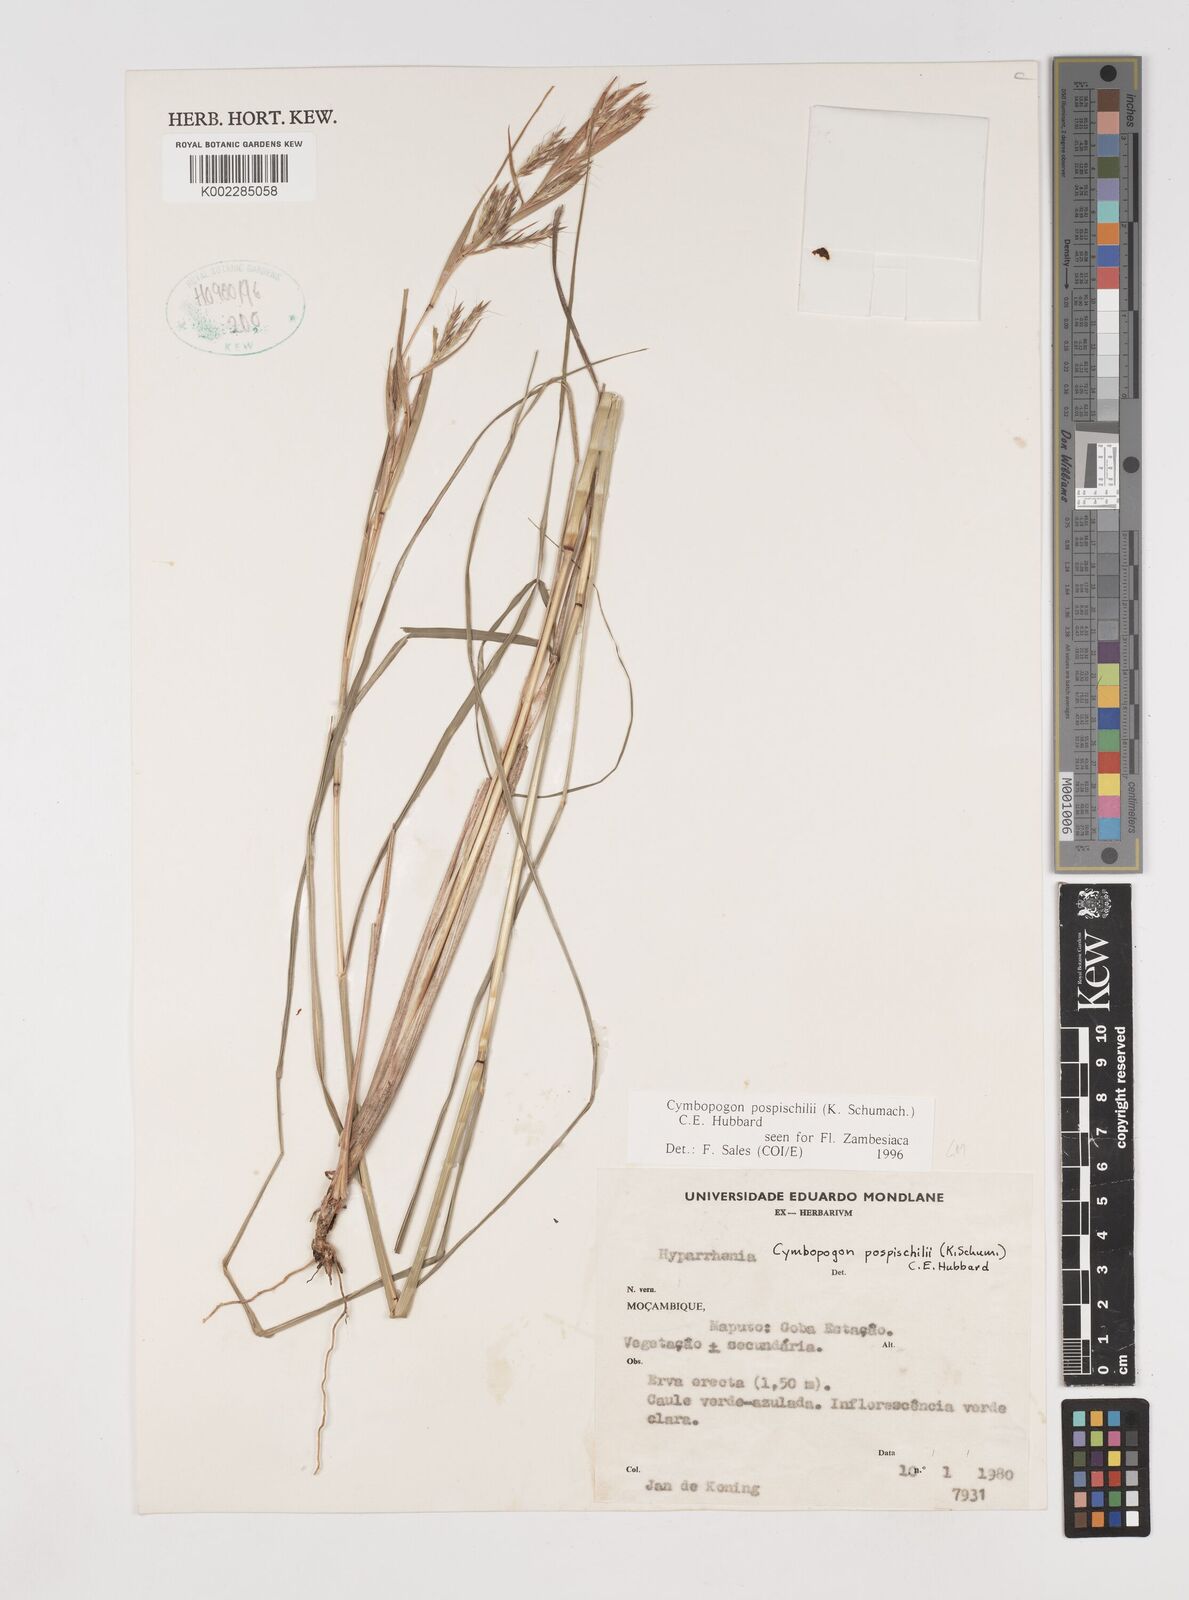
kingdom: Plantae
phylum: Tracheophyta
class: Liliopsida
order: Poales
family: Poaceae
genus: Cymbopogon
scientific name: Cymbopogon pospischilii
